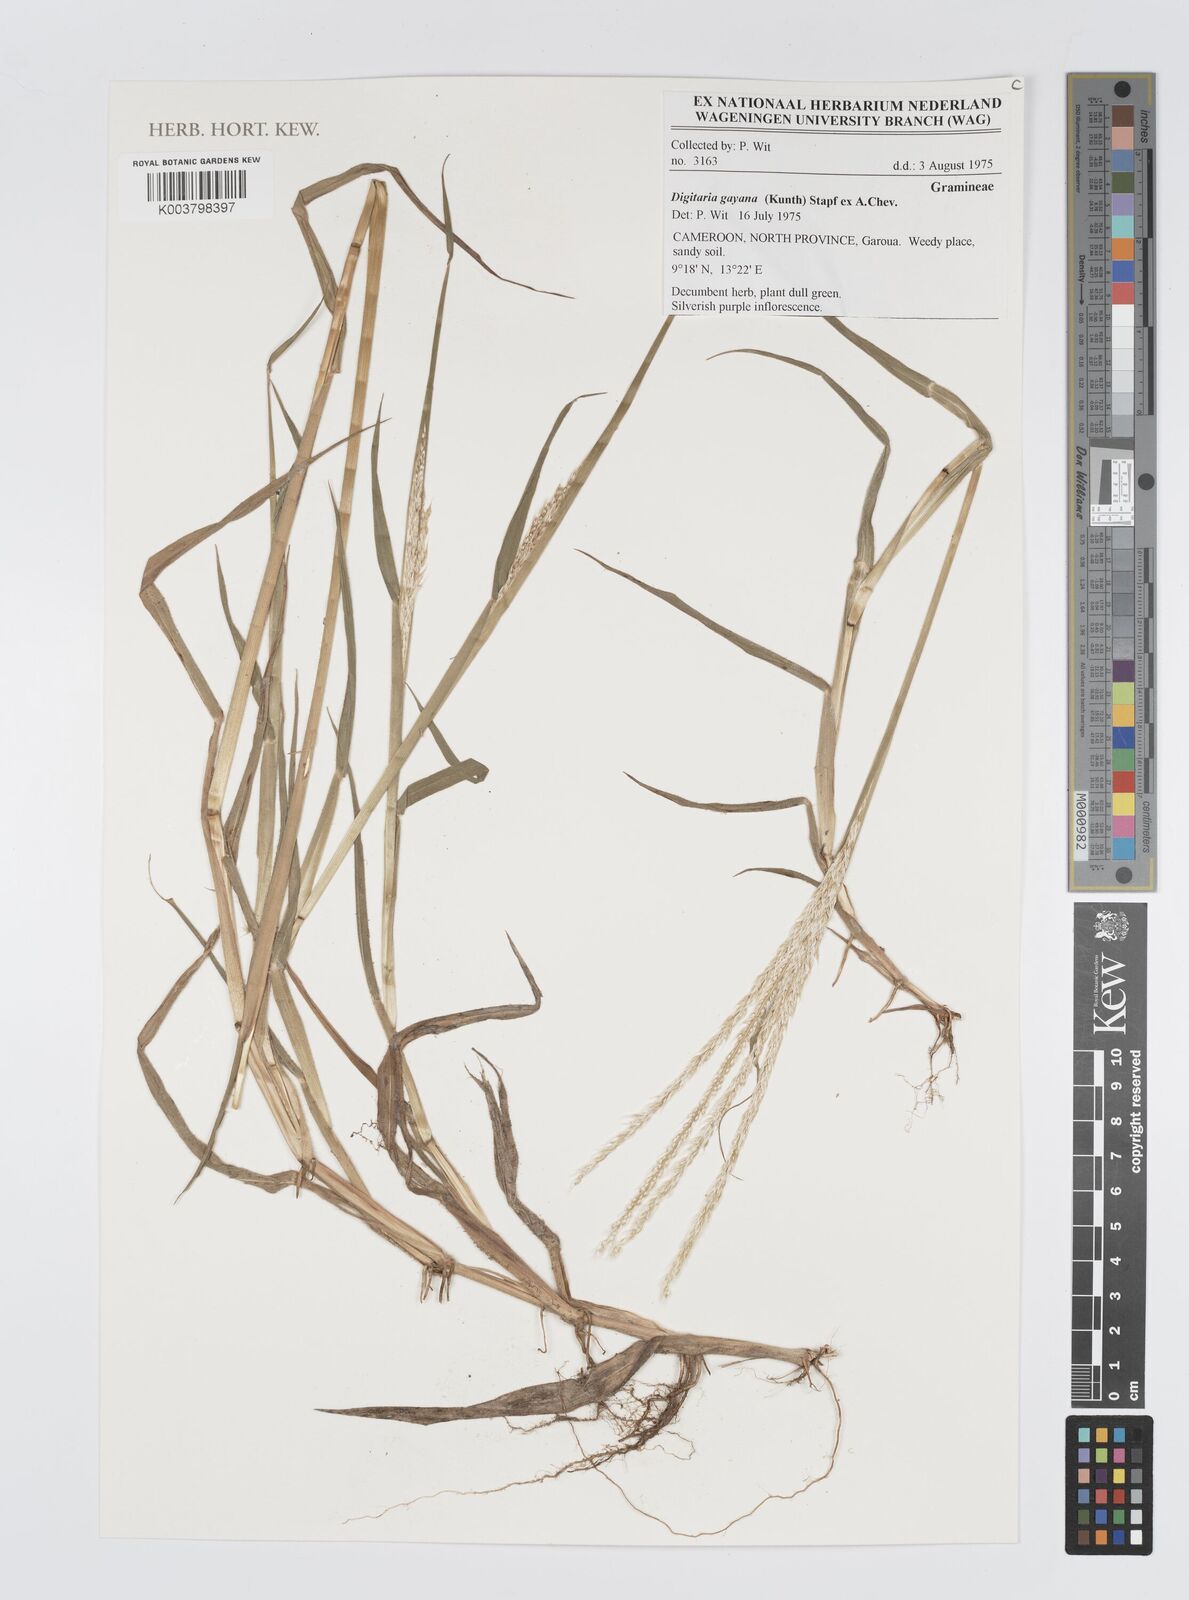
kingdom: Plantae
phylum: Tracheophyta
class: Liliopsida
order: Poales
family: Poaceae
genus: Digitaria
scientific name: Digitaria gayana
